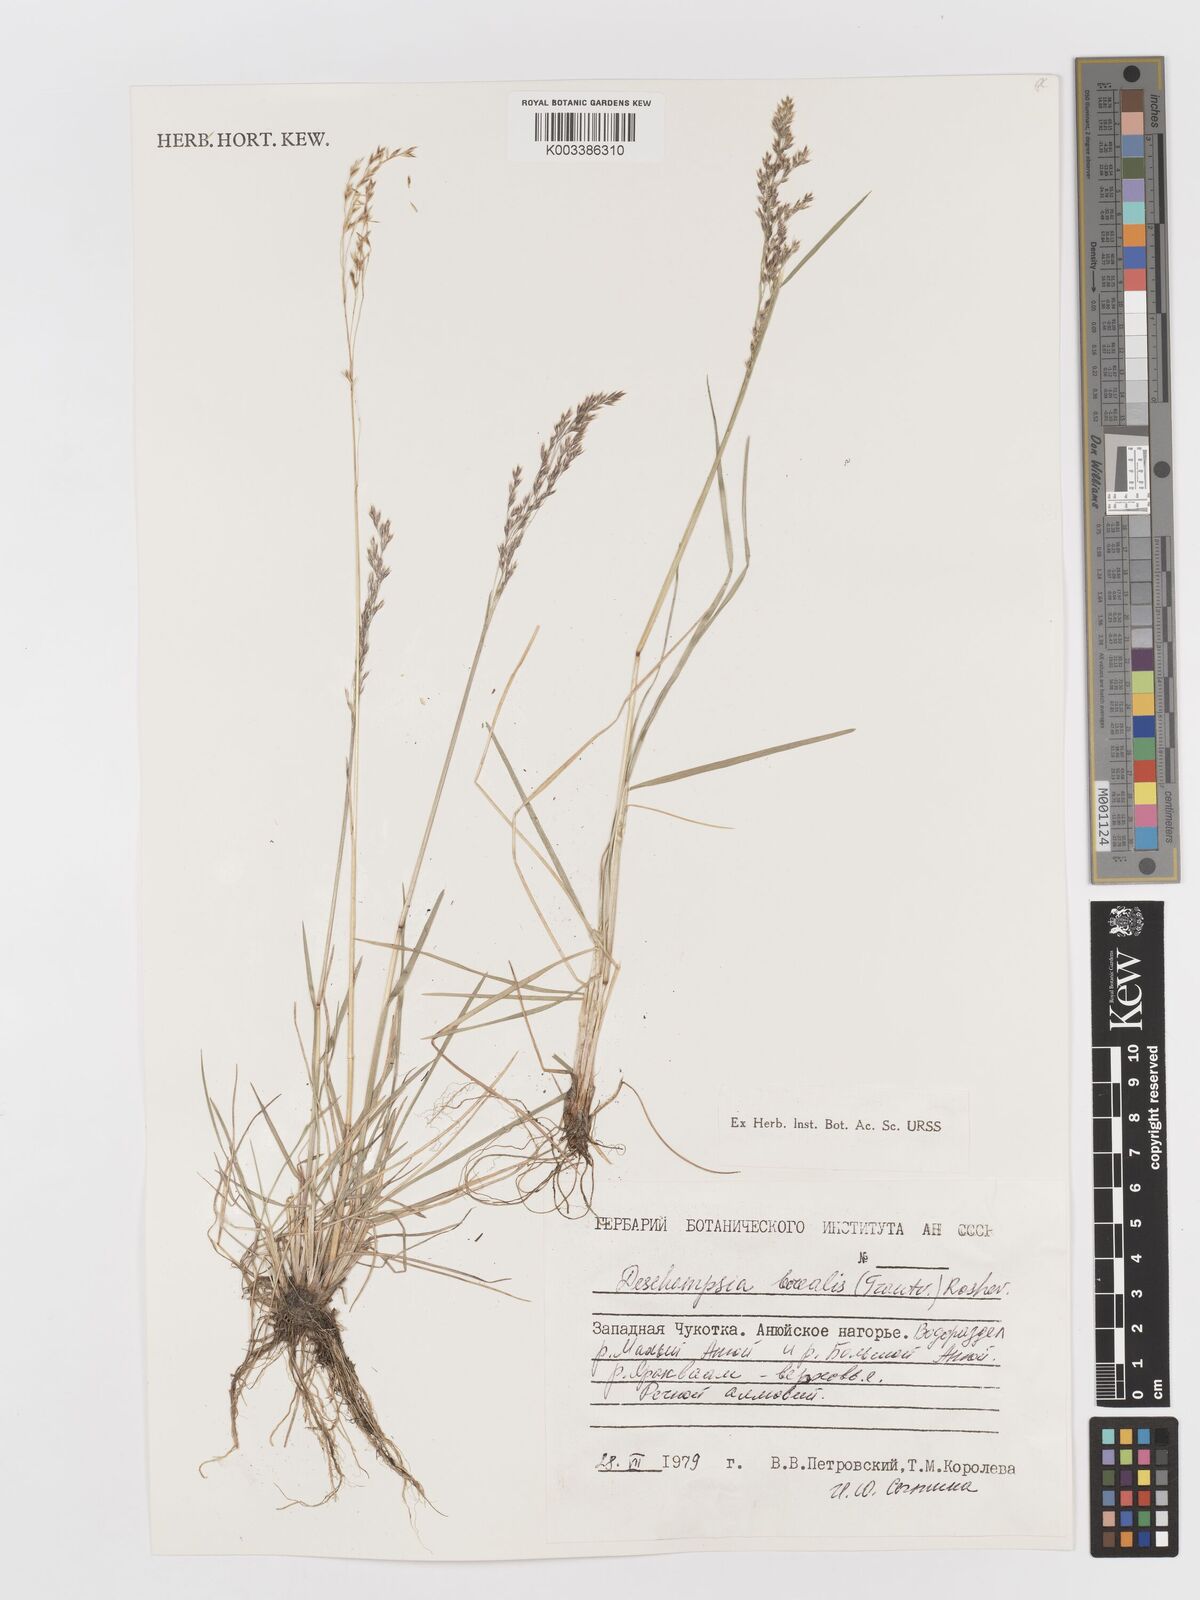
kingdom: Plantae
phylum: Tracheophyta
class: Liliopsida
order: Poales
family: Poaceae
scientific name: Poaceae
